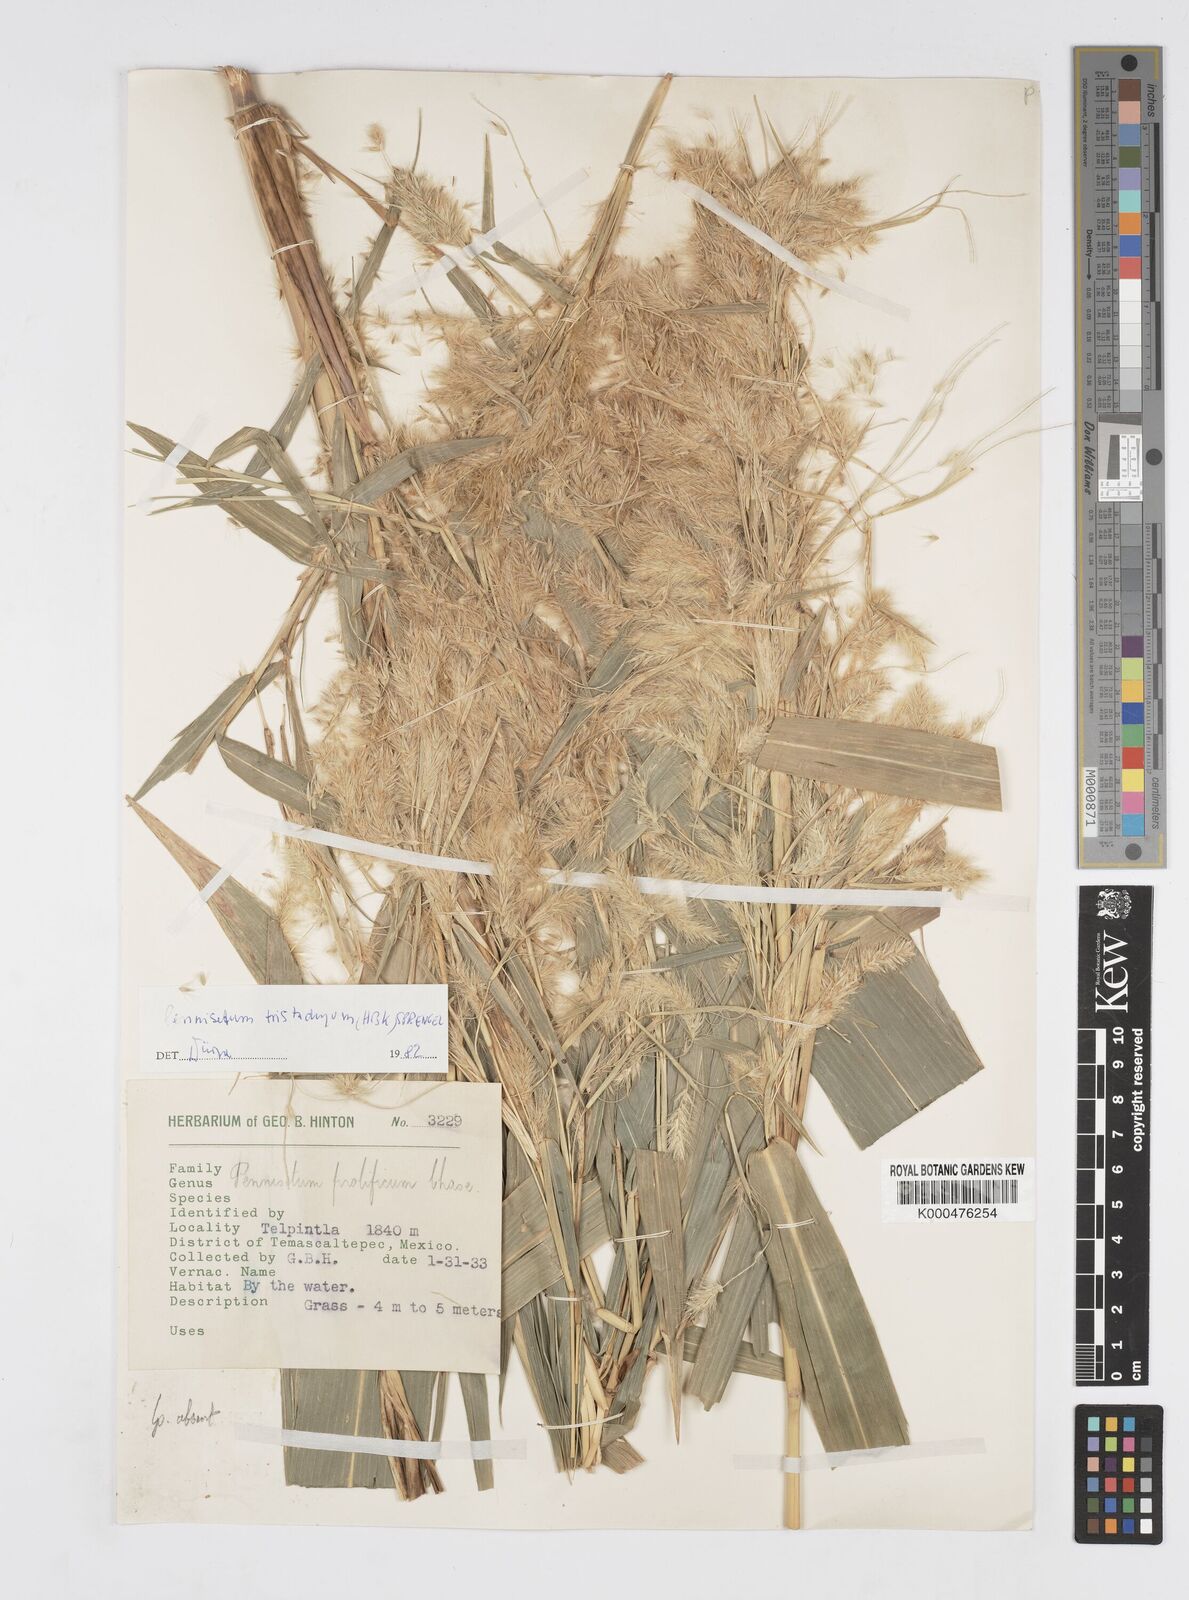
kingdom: Plantae
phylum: Tracheophyta
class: Liliopsida
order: Poales
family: Poaceae
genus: Cenchrus
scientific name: Cenchrus prolificus
